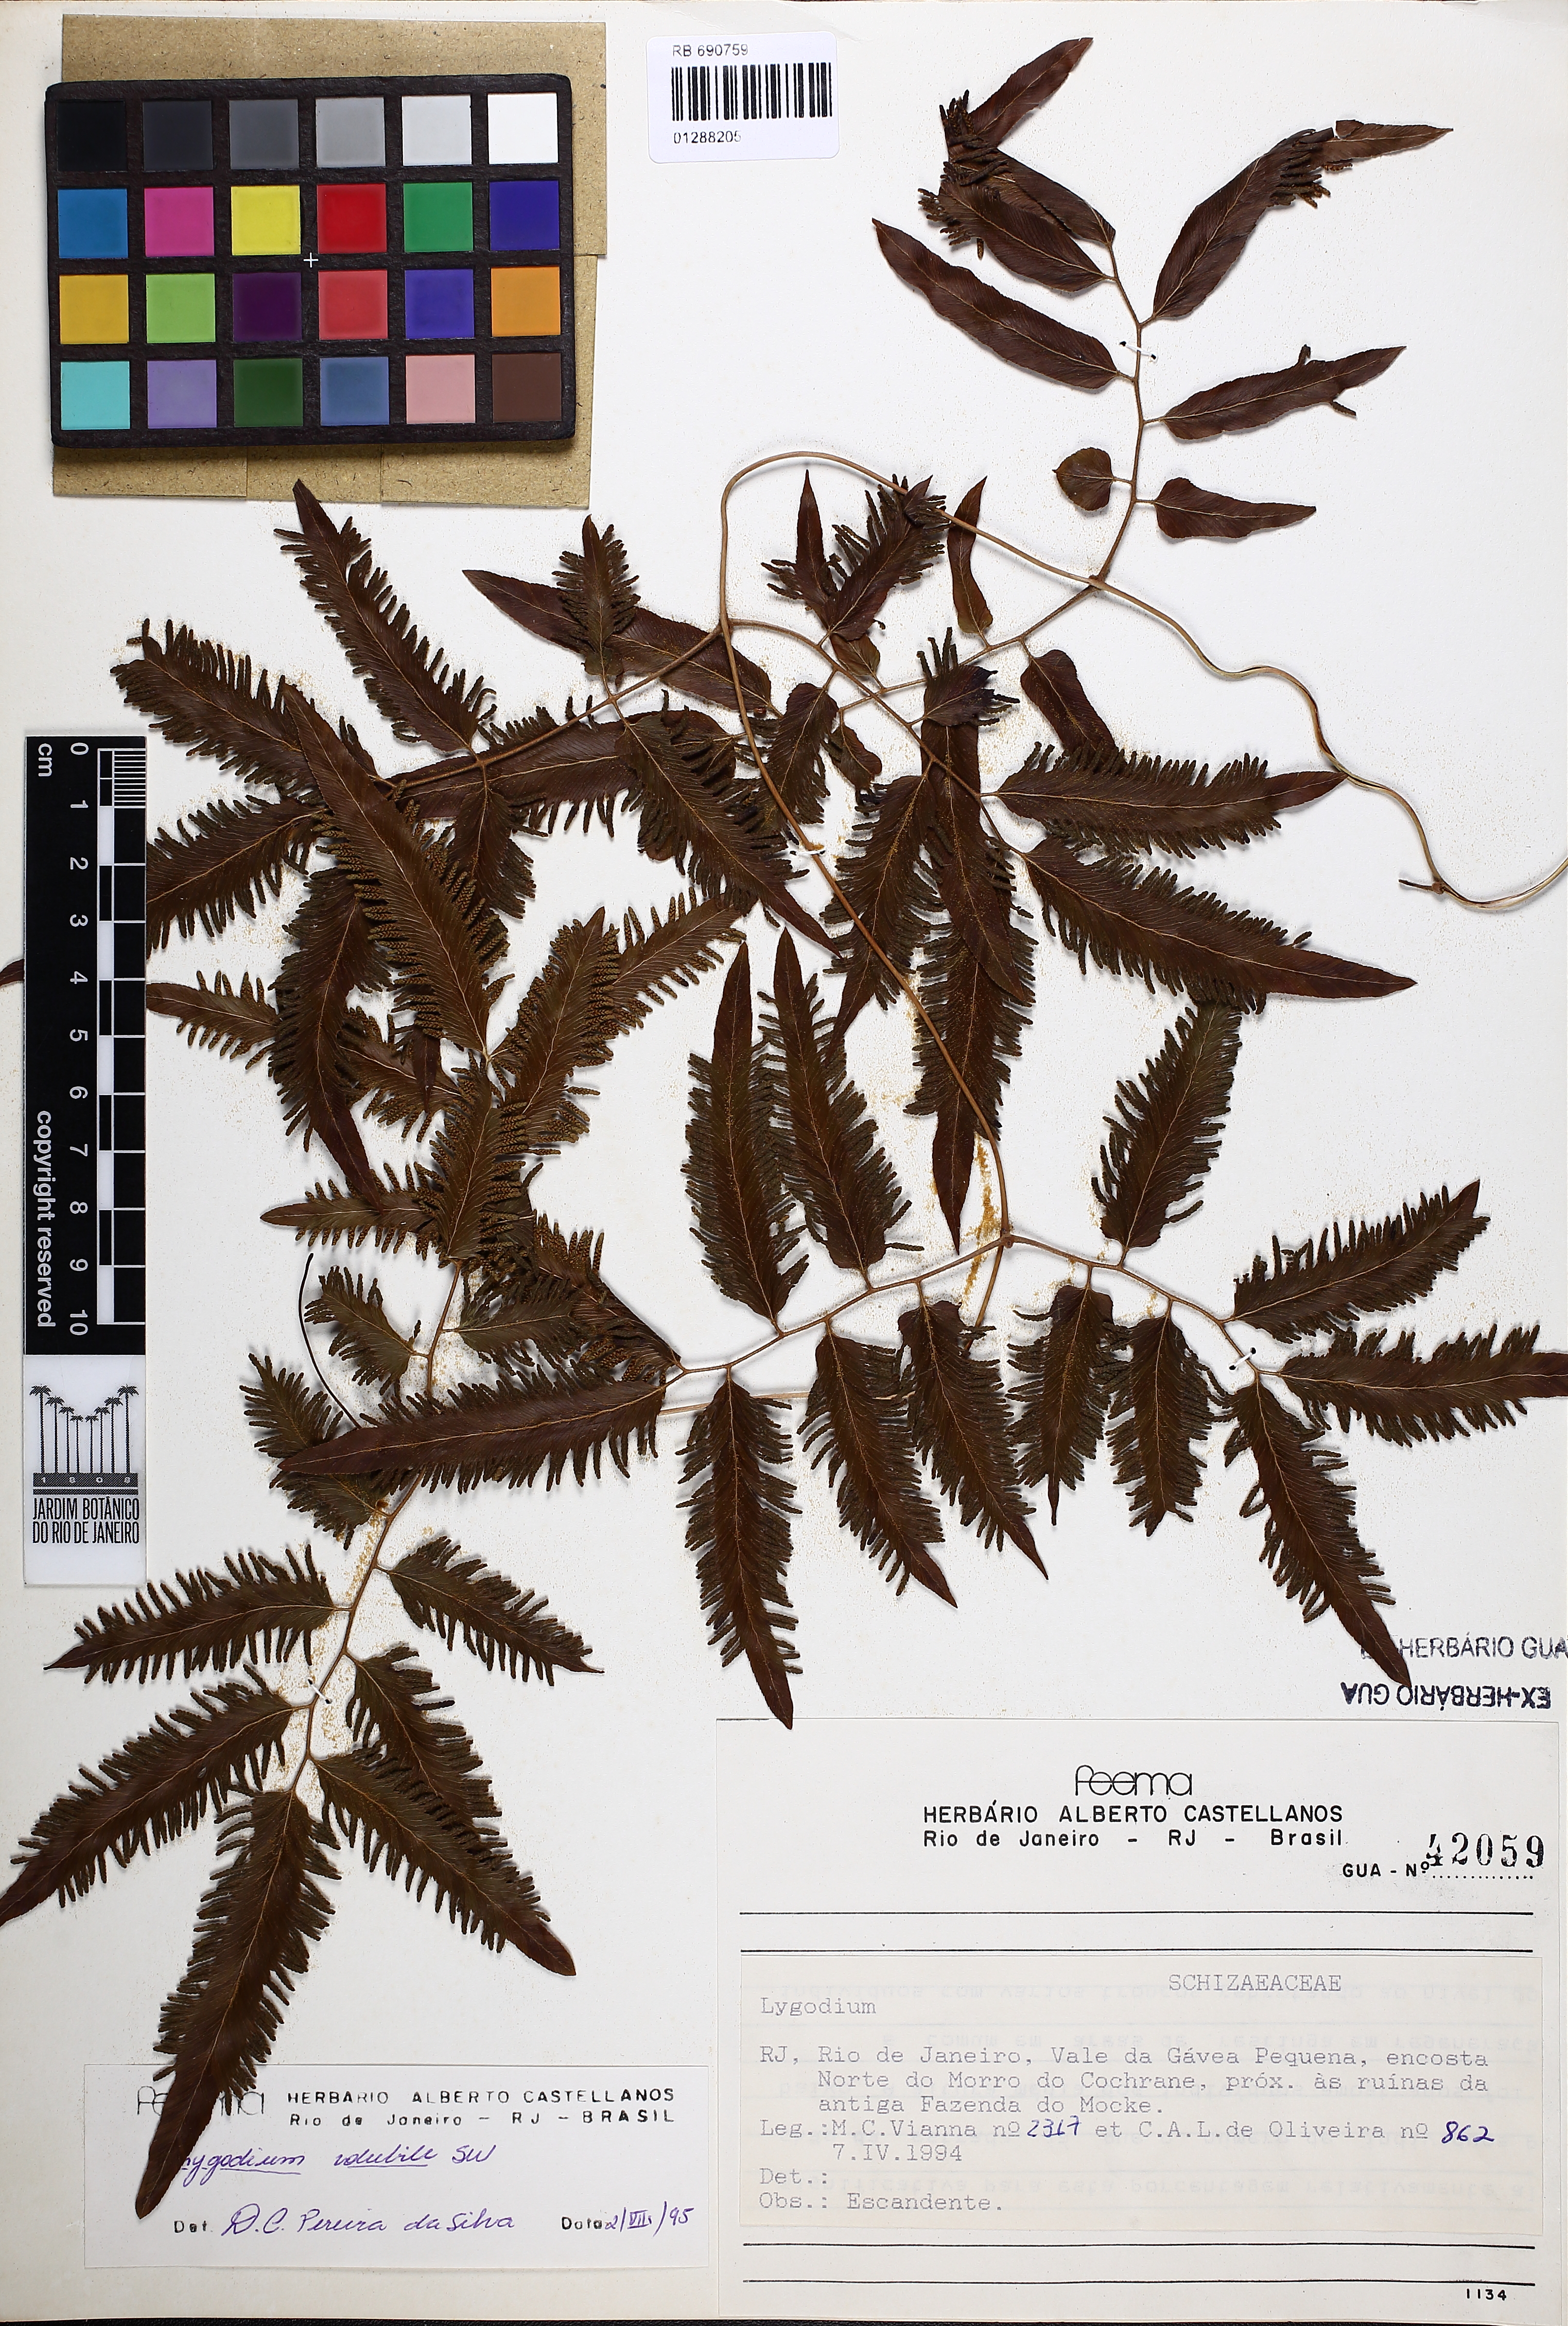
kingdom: Plantae
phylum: Tracheophyta
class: Polypodiopsida
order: Schizaeales
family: Lygodiaceae
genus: Lygodium
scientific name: Lygodium volubile
